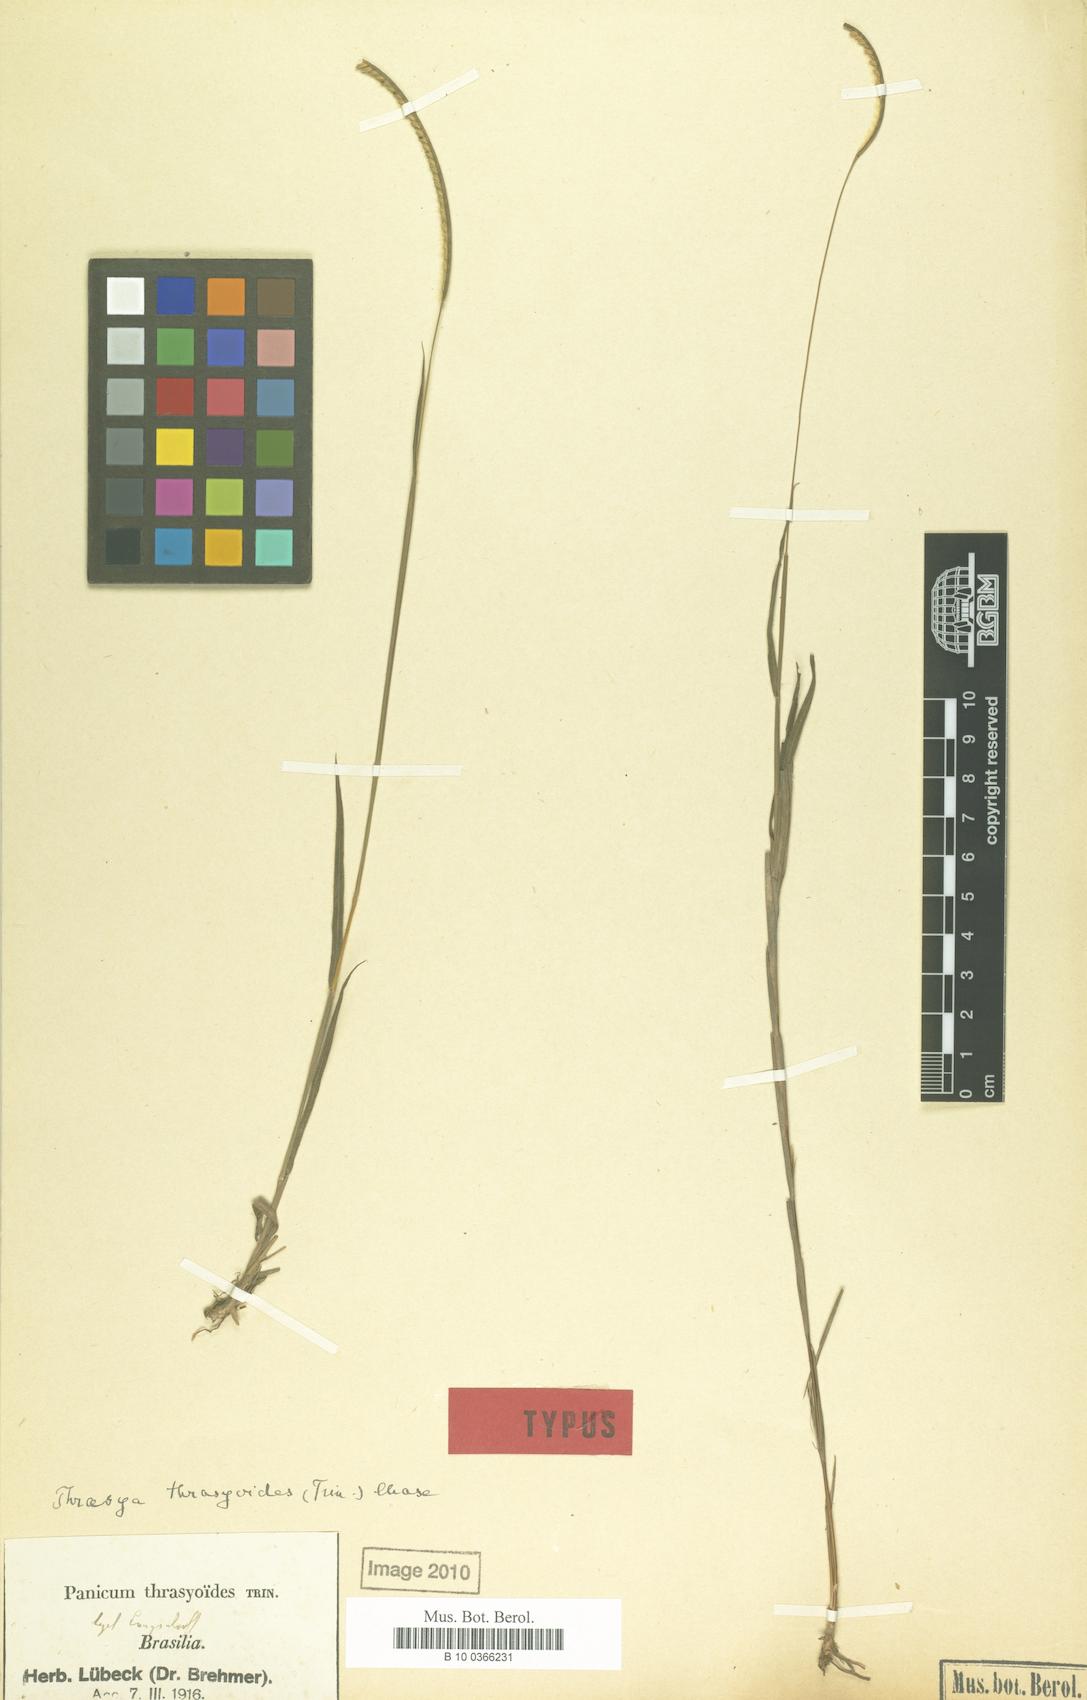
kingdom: Plantae
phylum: Tracheophyta
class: Liliopsida
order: Poales
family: Poaceae
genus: Paspalum
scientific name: Paspalum thrasyoides
